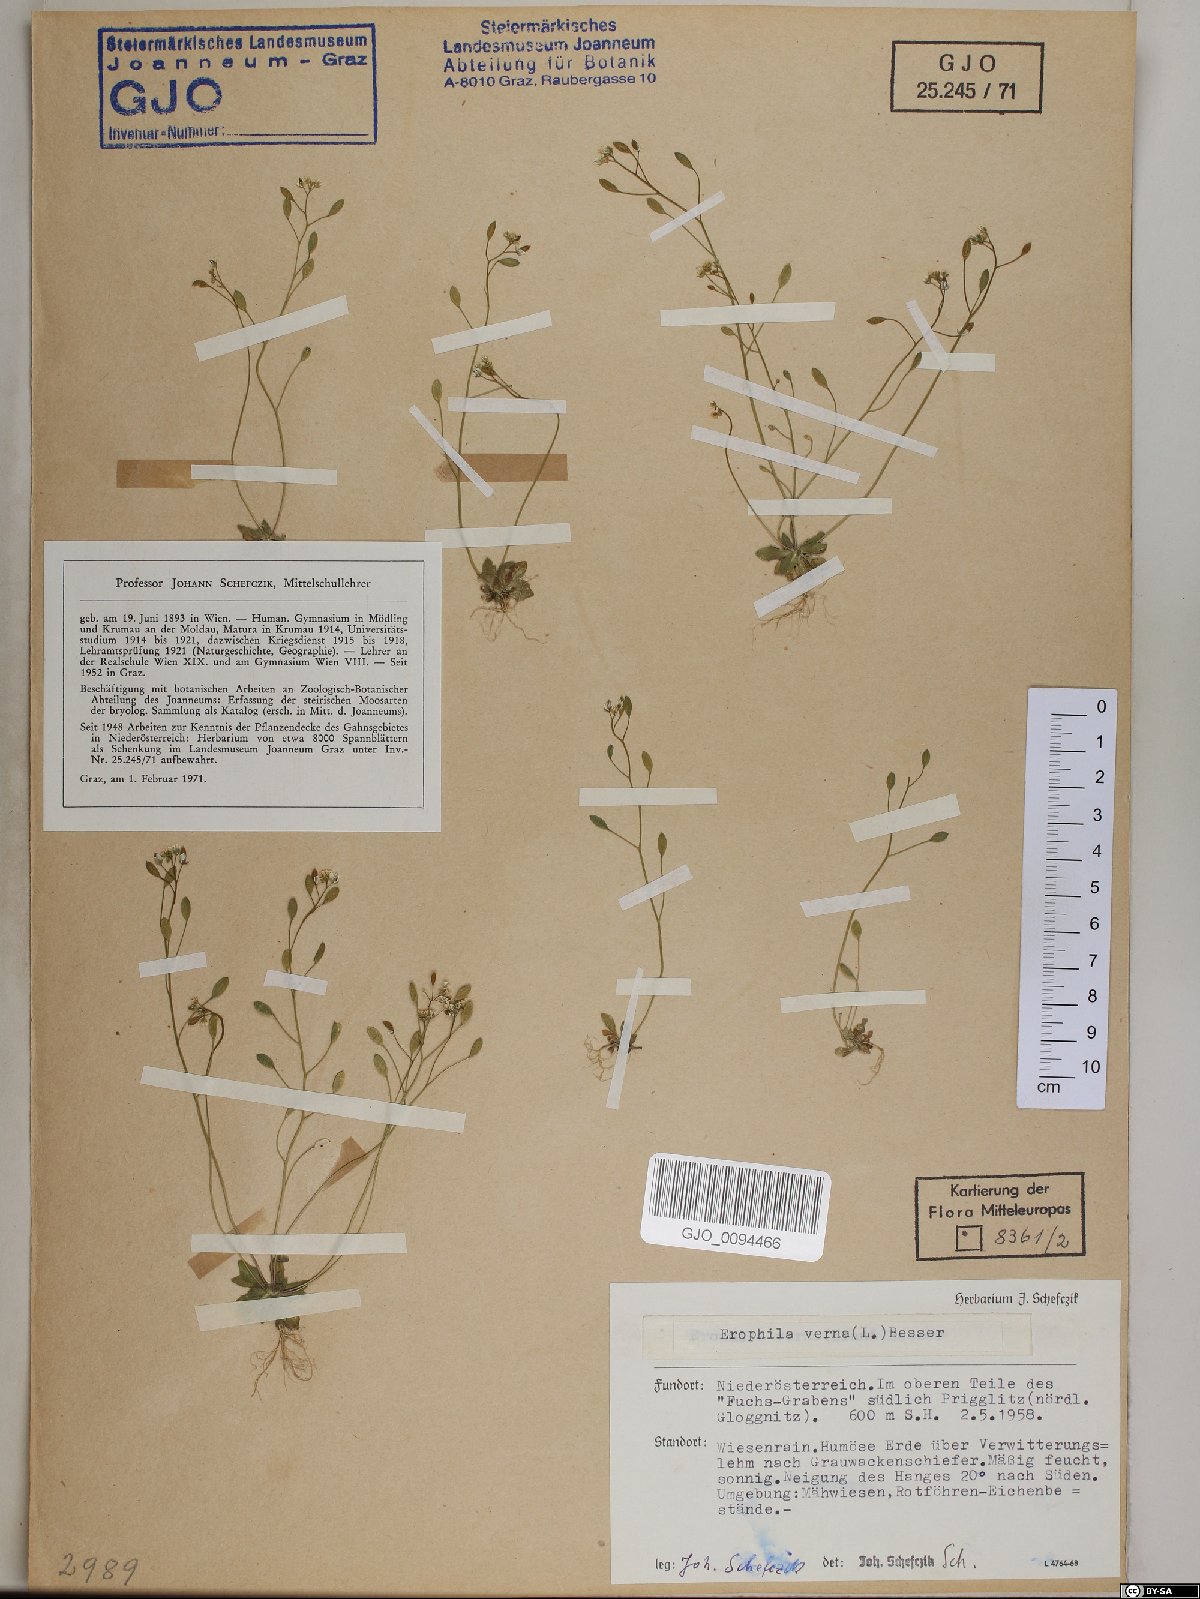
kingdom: Plantae
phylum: Tracheophyta
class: Magnoliopsida
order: Brassicales
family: Brassicaceae
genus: Draba
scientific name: Draba verna
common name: Spring draba
